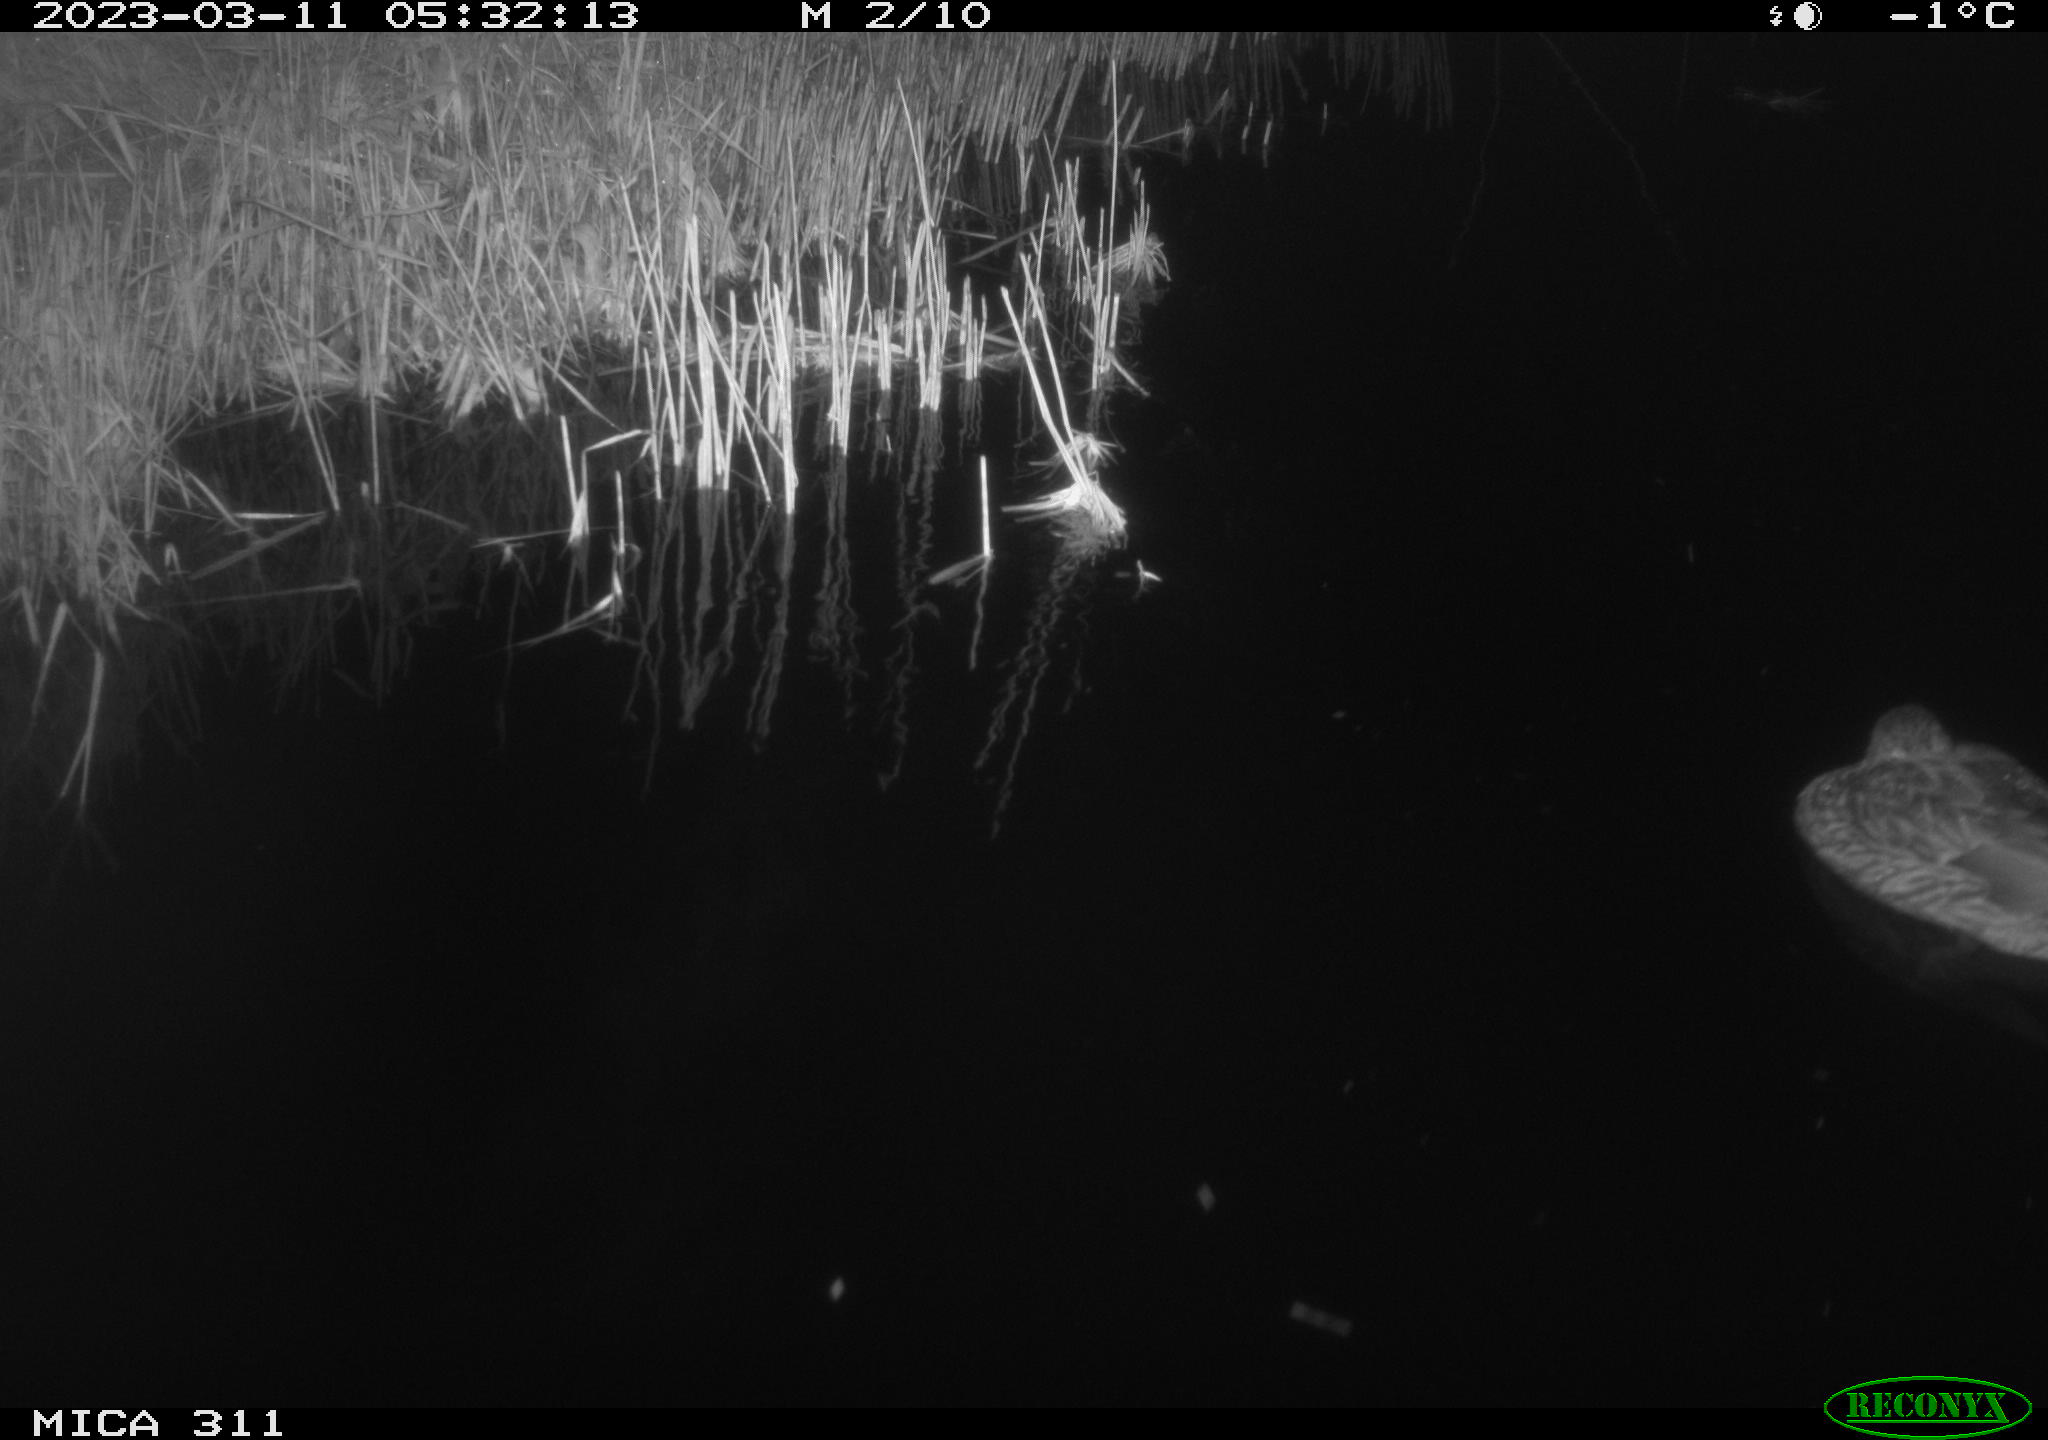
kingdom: Animalia
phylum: Chordata
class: Aves
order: Anseriformes
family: Anatidae
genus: Anas
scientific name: Anas
